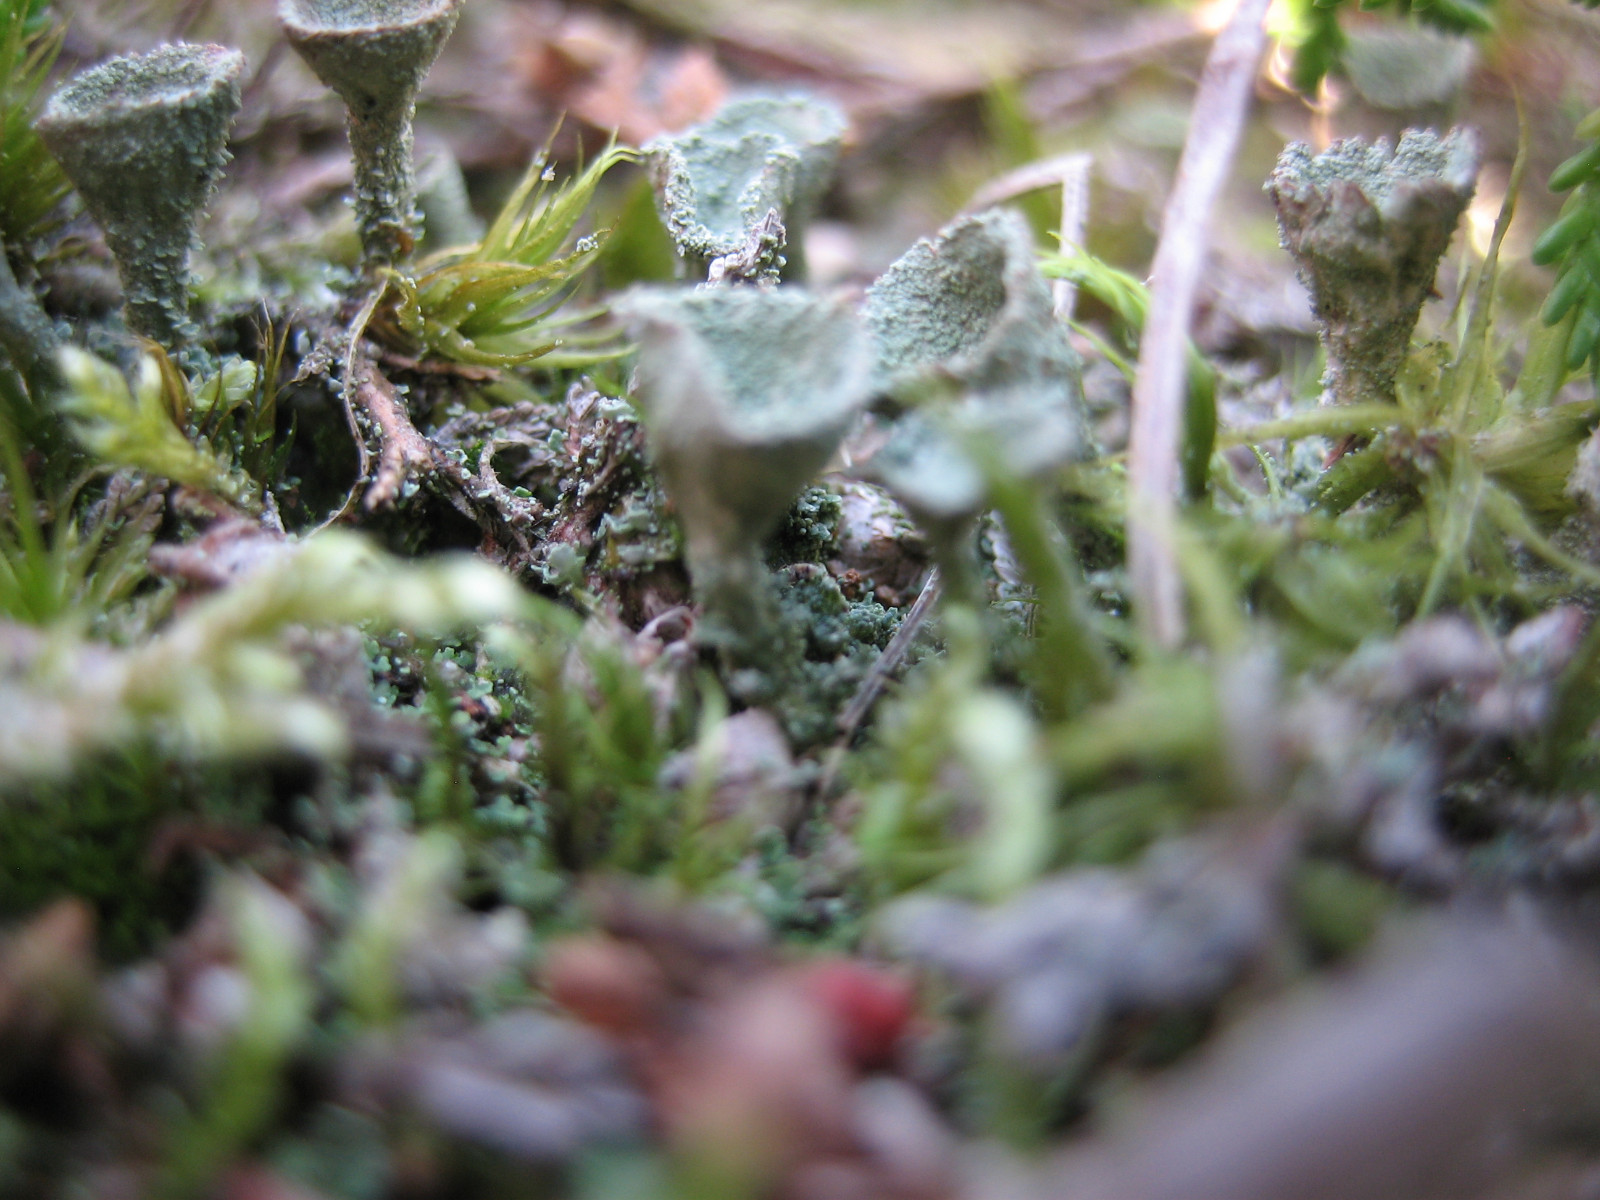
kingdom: Fungi
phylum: Ascomycota
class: Lecanoromycetes
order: Lecanorales
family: Cladoniaceae
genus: Cladonia
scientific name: Cladonia
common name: brungrøn bægerlav
